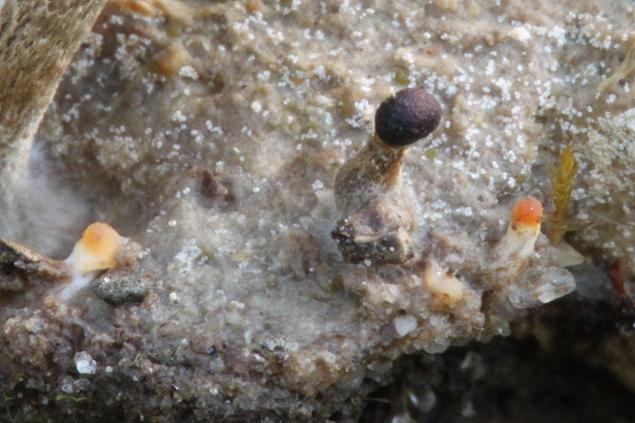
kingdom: Fungi
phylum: Basidiomycota
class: Agaricomycetes
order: Agaricales
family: Strophariaceae
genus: Deconica
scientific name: Deconica
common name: stråhat
